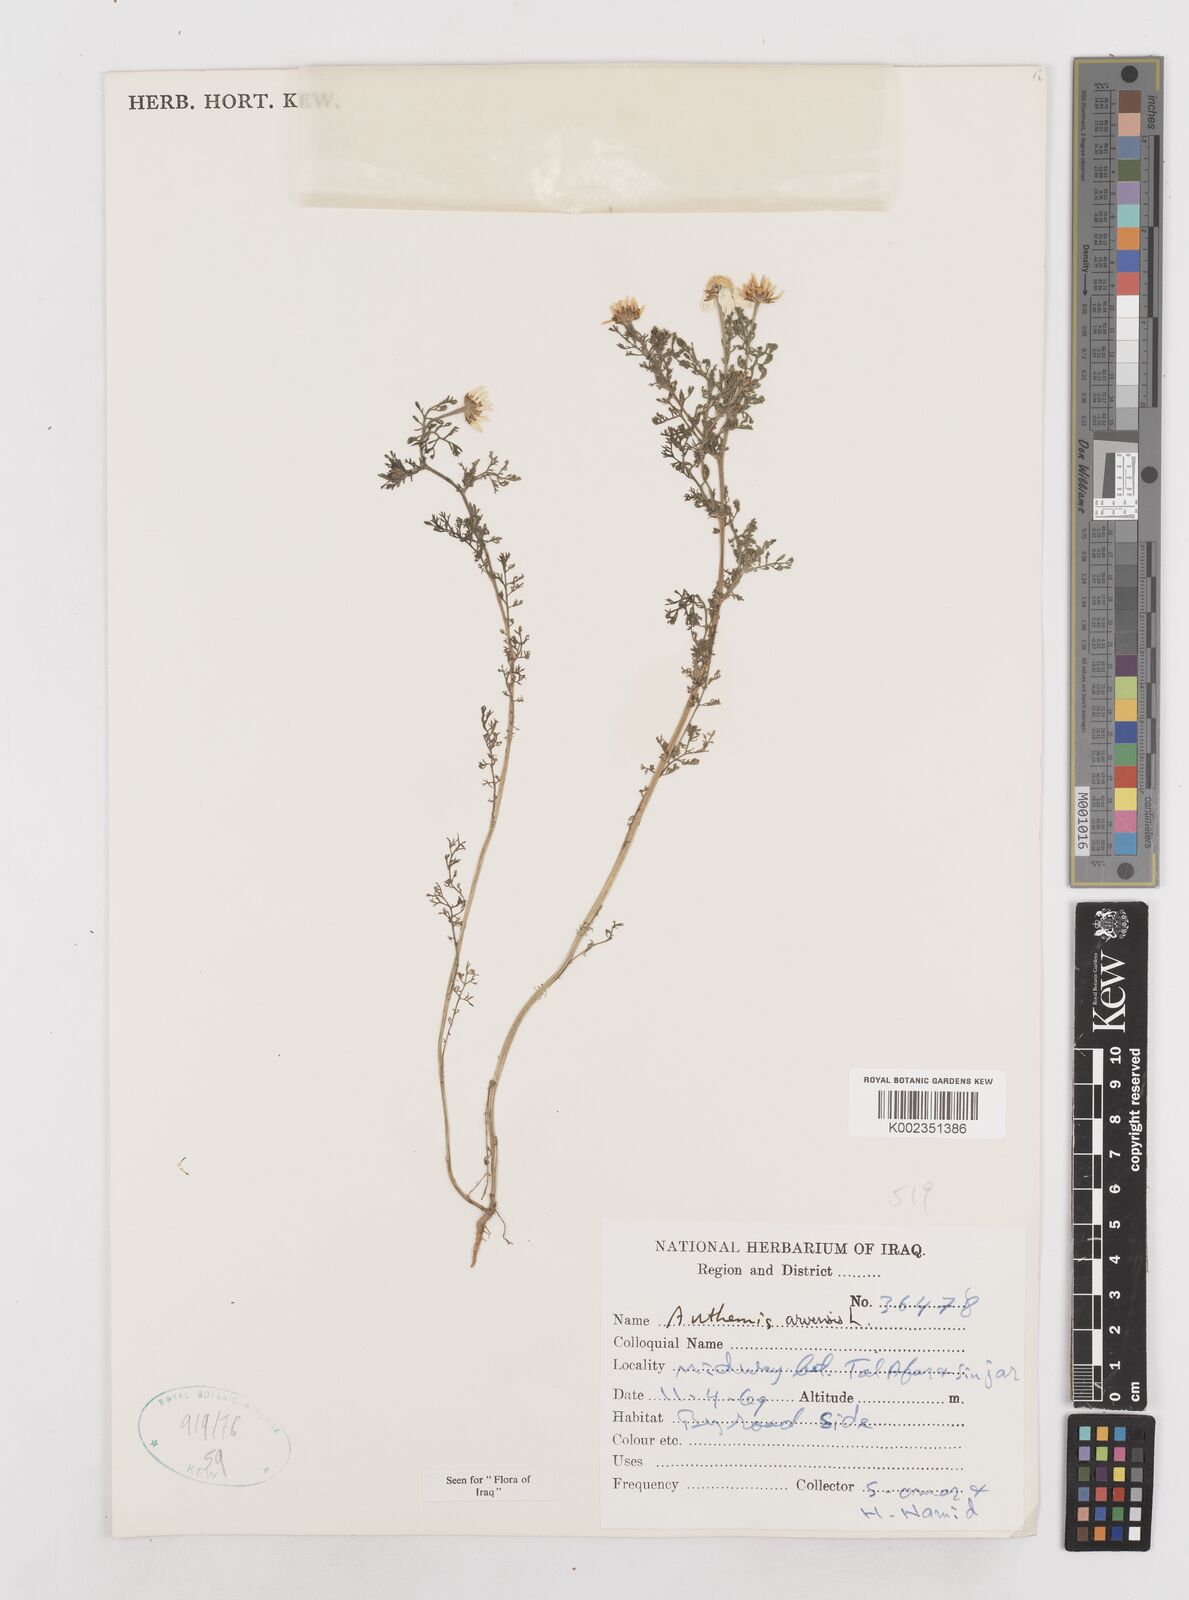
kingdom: Plantae
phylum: Tracheophyta
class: Magnoliopsida
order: Asterales
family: Asteraceae
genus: Anthemis
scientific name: Anthemis arvensis
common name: Corn chamomile
